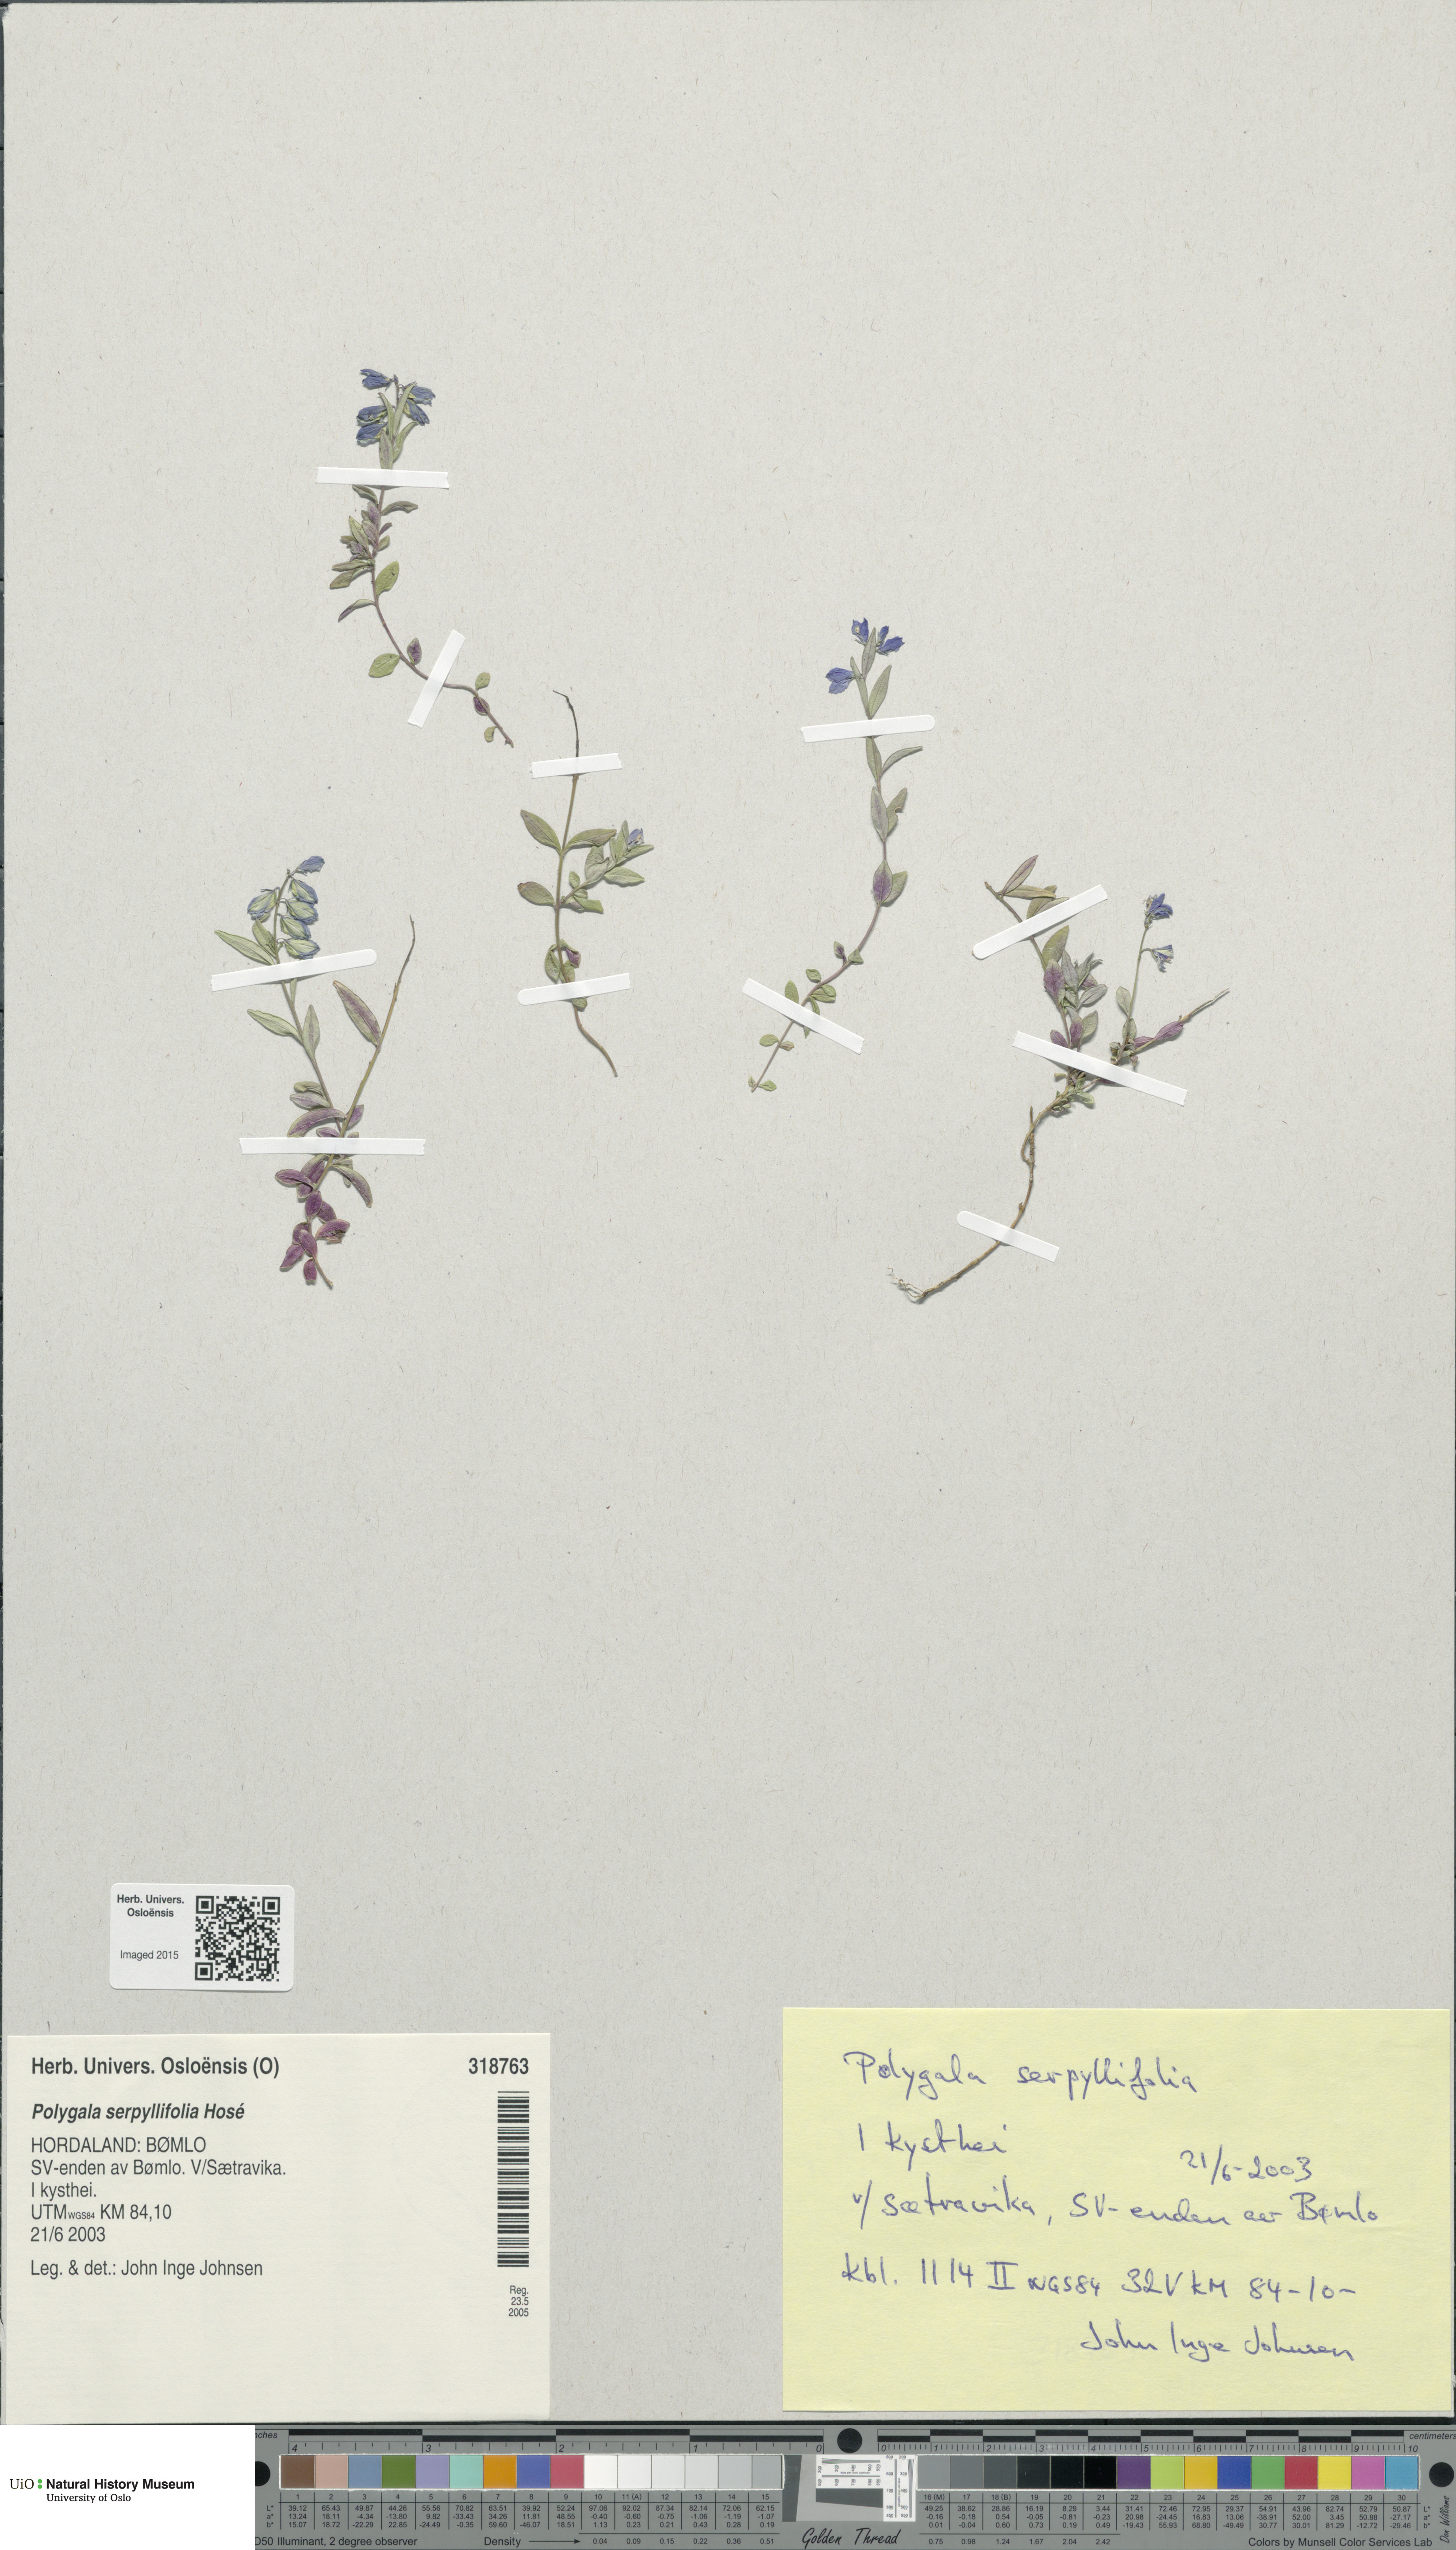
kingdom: Plantae
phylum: Tracheophyta
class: Magnoliopsida
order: Fabales
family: Polygalaceae
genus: Polygala
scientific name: Polygala serpyllifolia
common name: Heath milkwort
